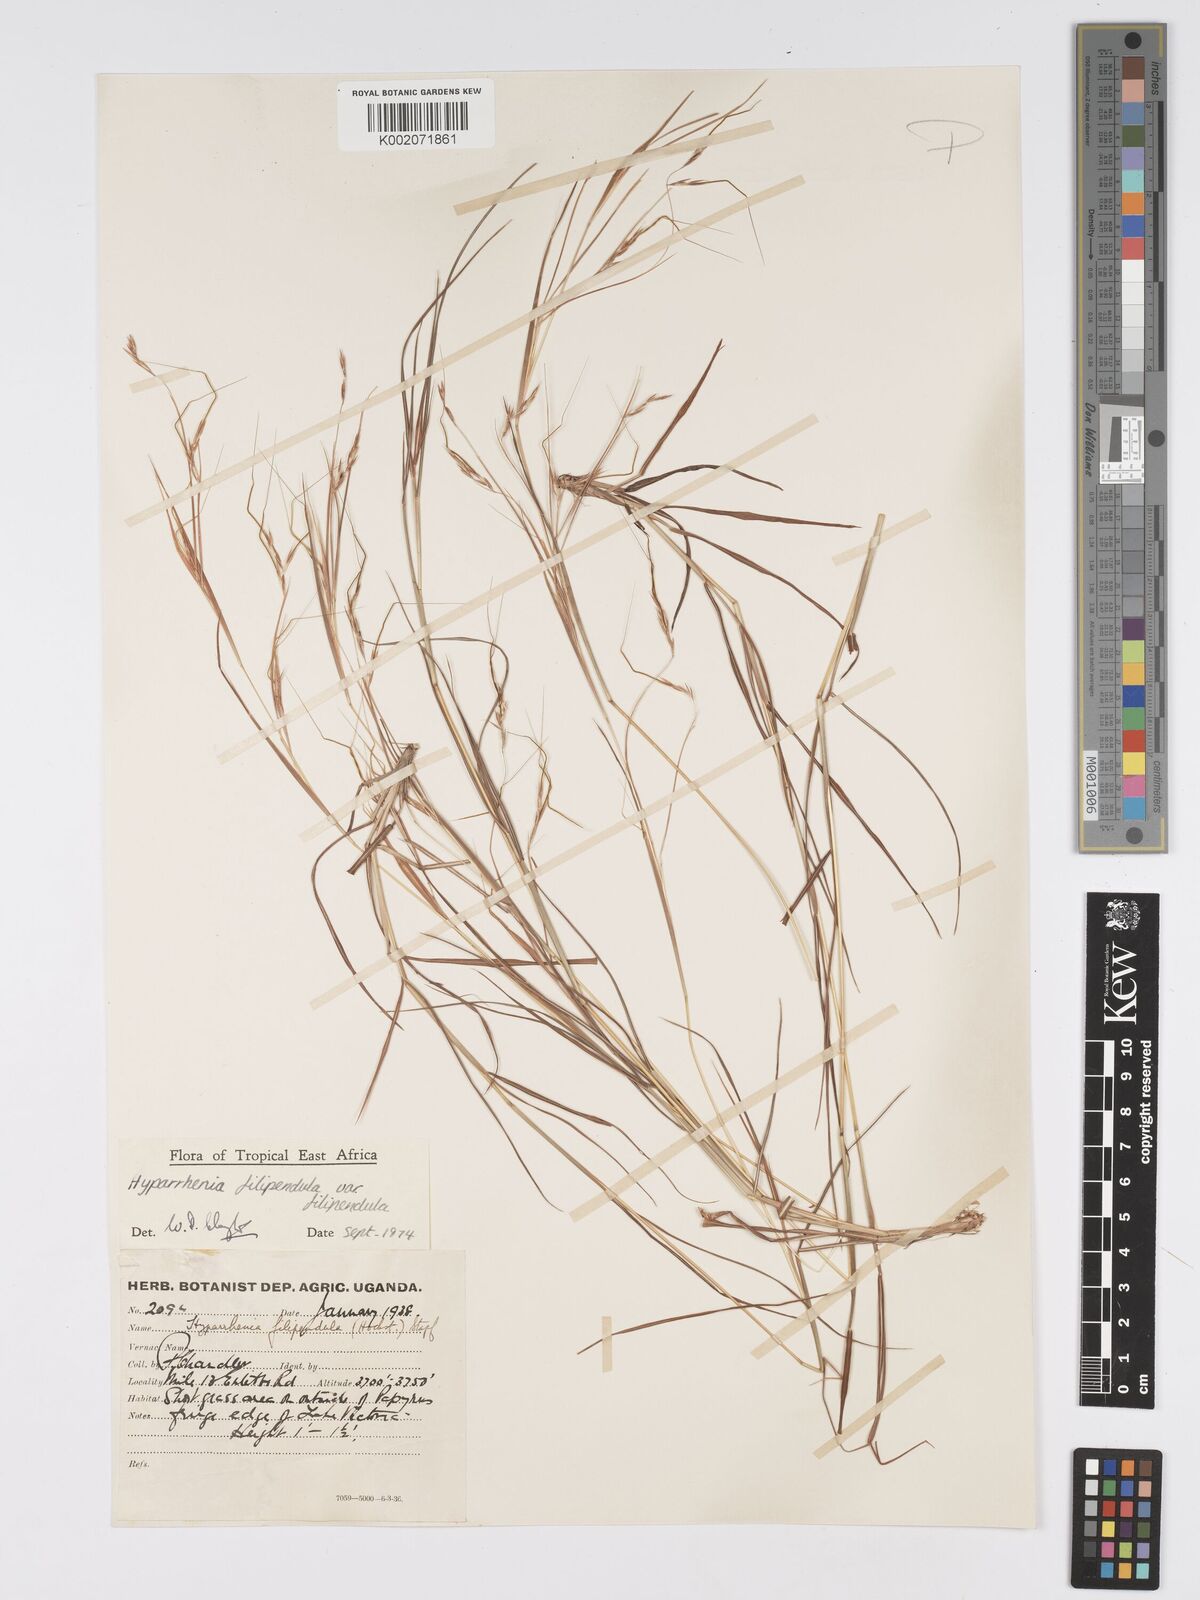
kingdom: Plantae
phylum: Tracheophyta
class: Liliopsida
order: Poales
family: Poaceae
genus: Hyparrhenia
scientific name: Hyparrhenia filipendula
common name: Tambookie grass
